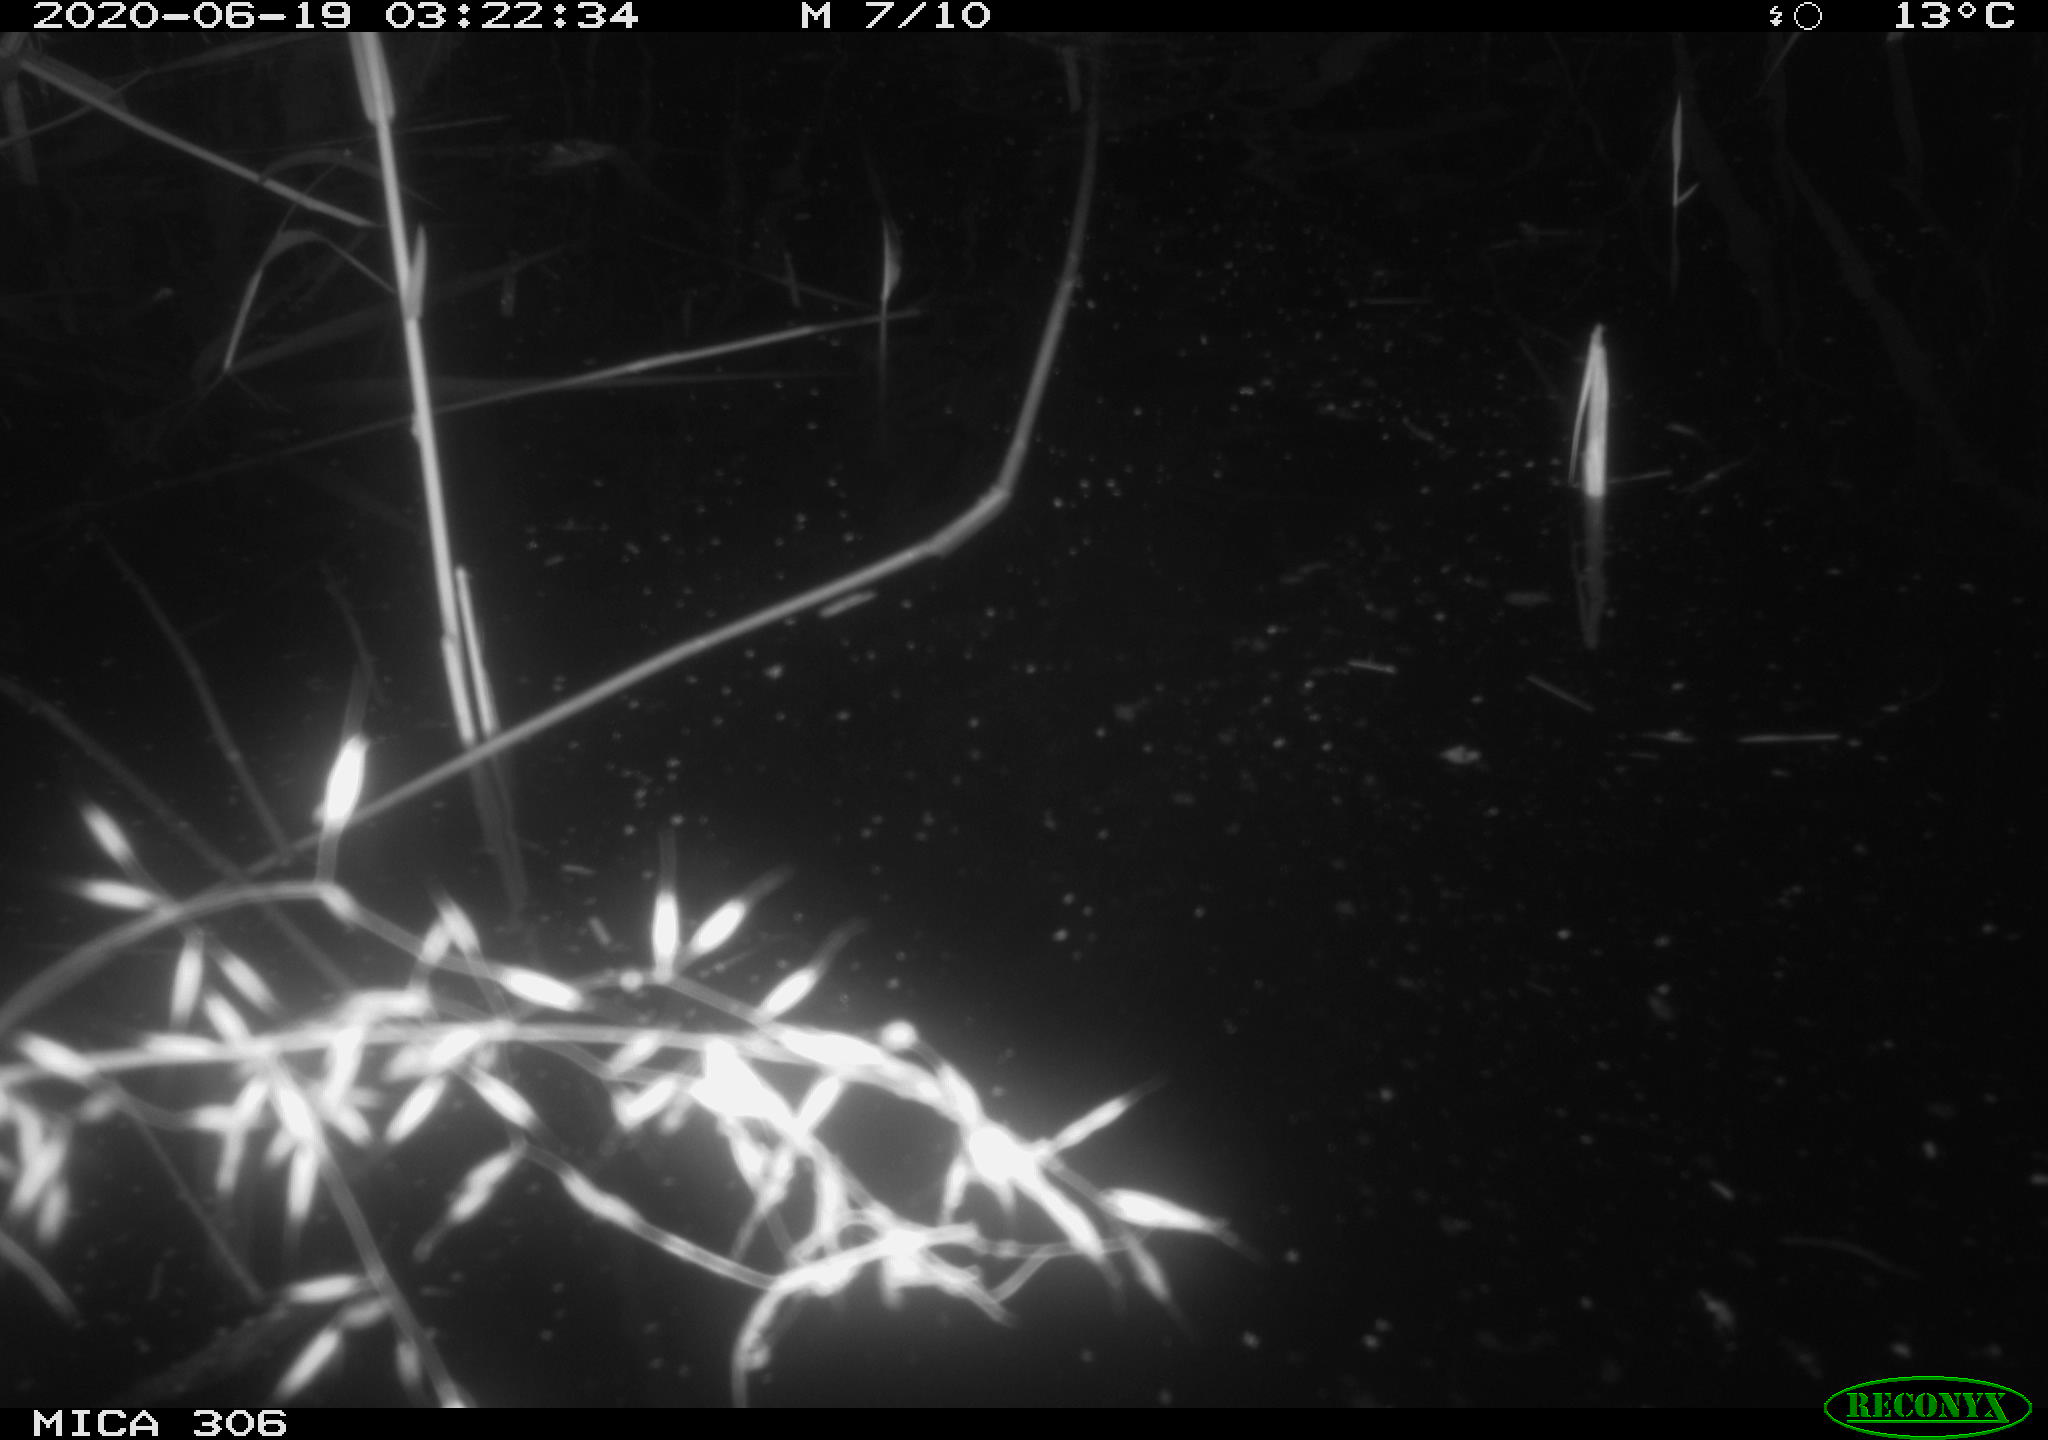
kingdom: Animalia
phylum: Chordata
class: Mammalia
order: Rodentia
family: Cricetidae
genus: Ondatra
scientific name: Ondatra zibethicus
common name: Muskrat
